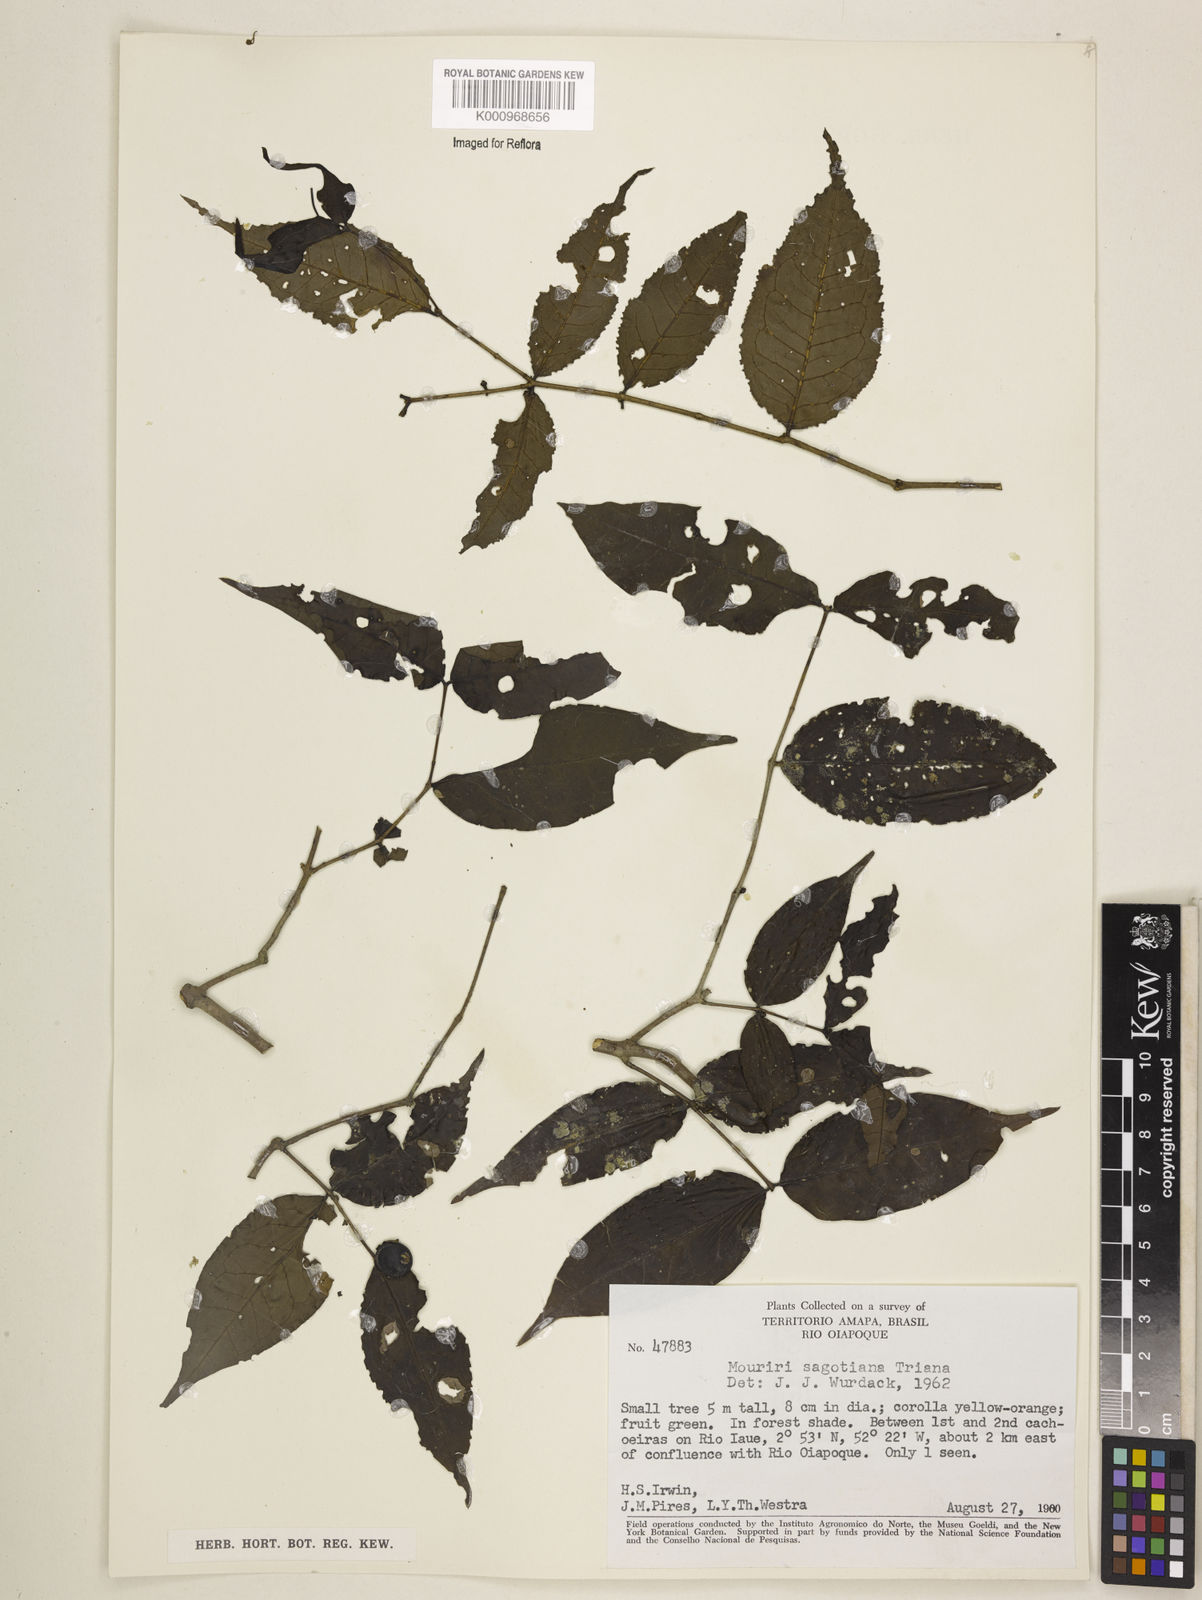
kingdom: Plantae
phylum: Tracheophyta
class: Magnoliopsida
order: Myrtales
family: Melastomataceae
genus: Mouriri
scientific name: Mouriri sagotiana
